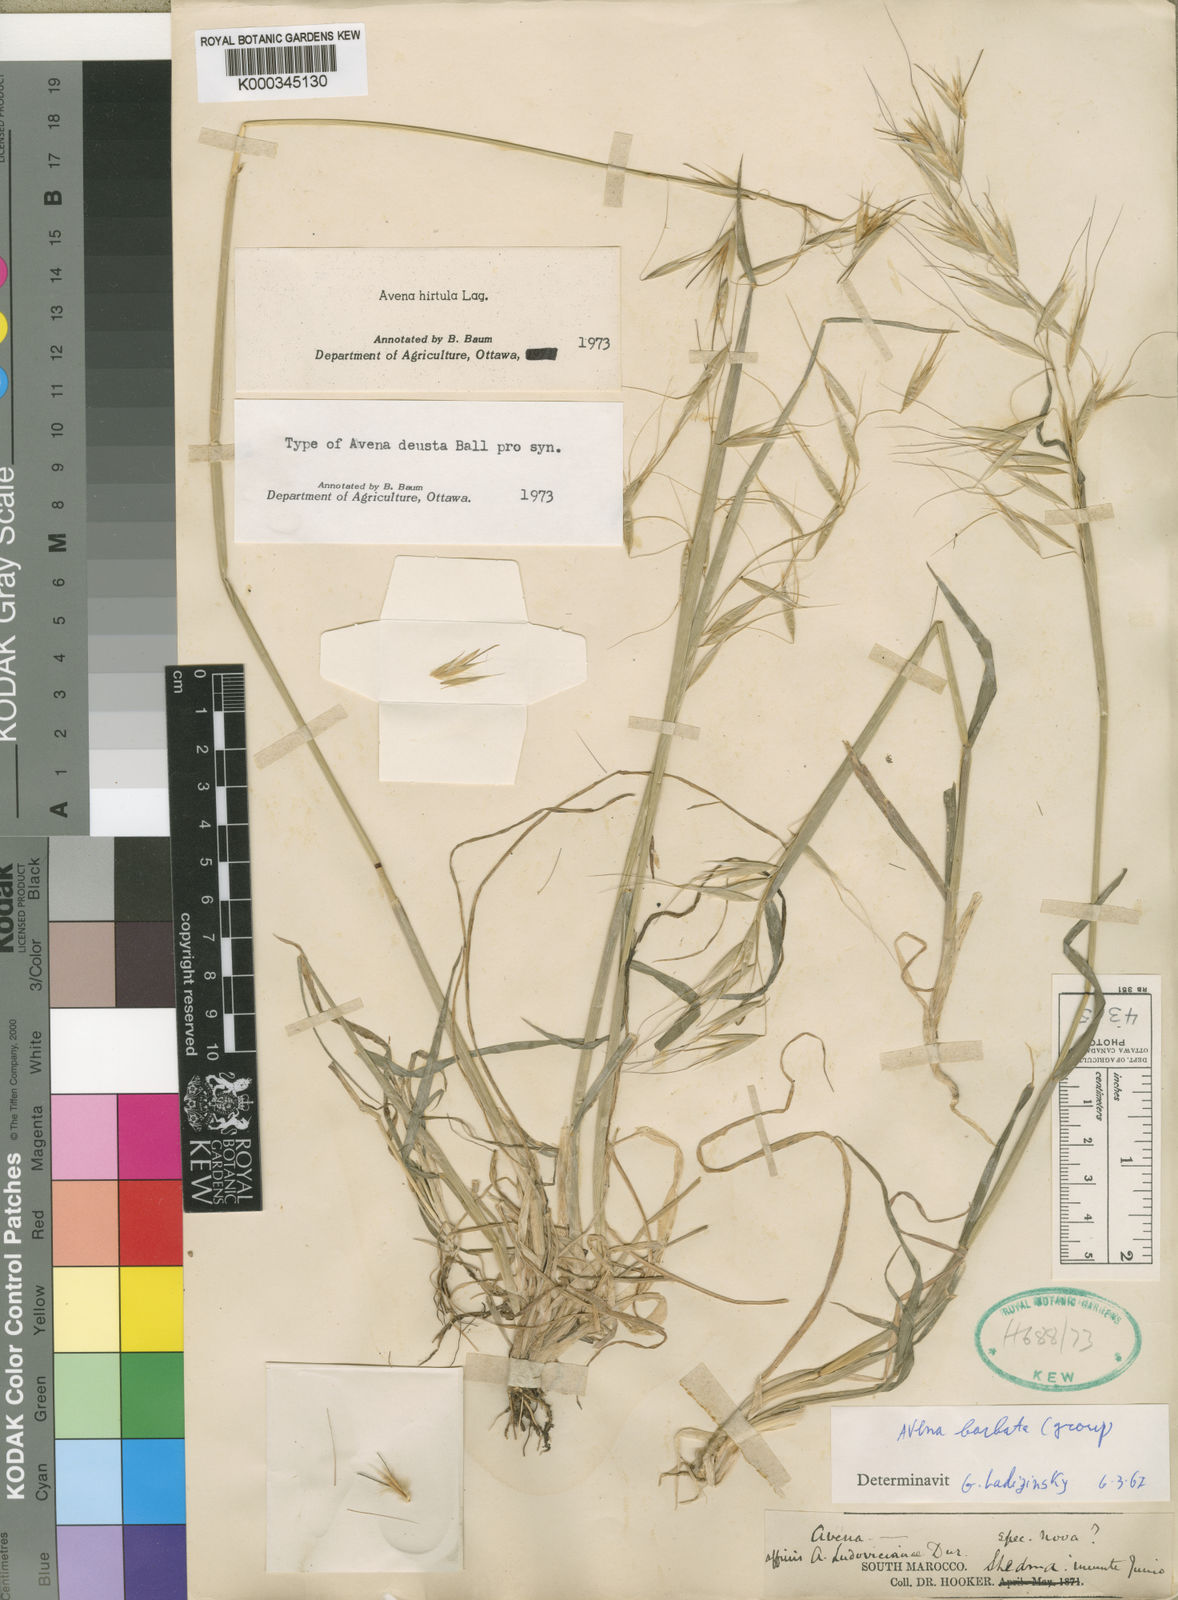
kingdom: Plantae
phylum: Tracheophyta
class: Liliopsida
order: Poales
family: Poaceae
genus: Avena
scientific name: Avena barbata
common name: Slender oat
